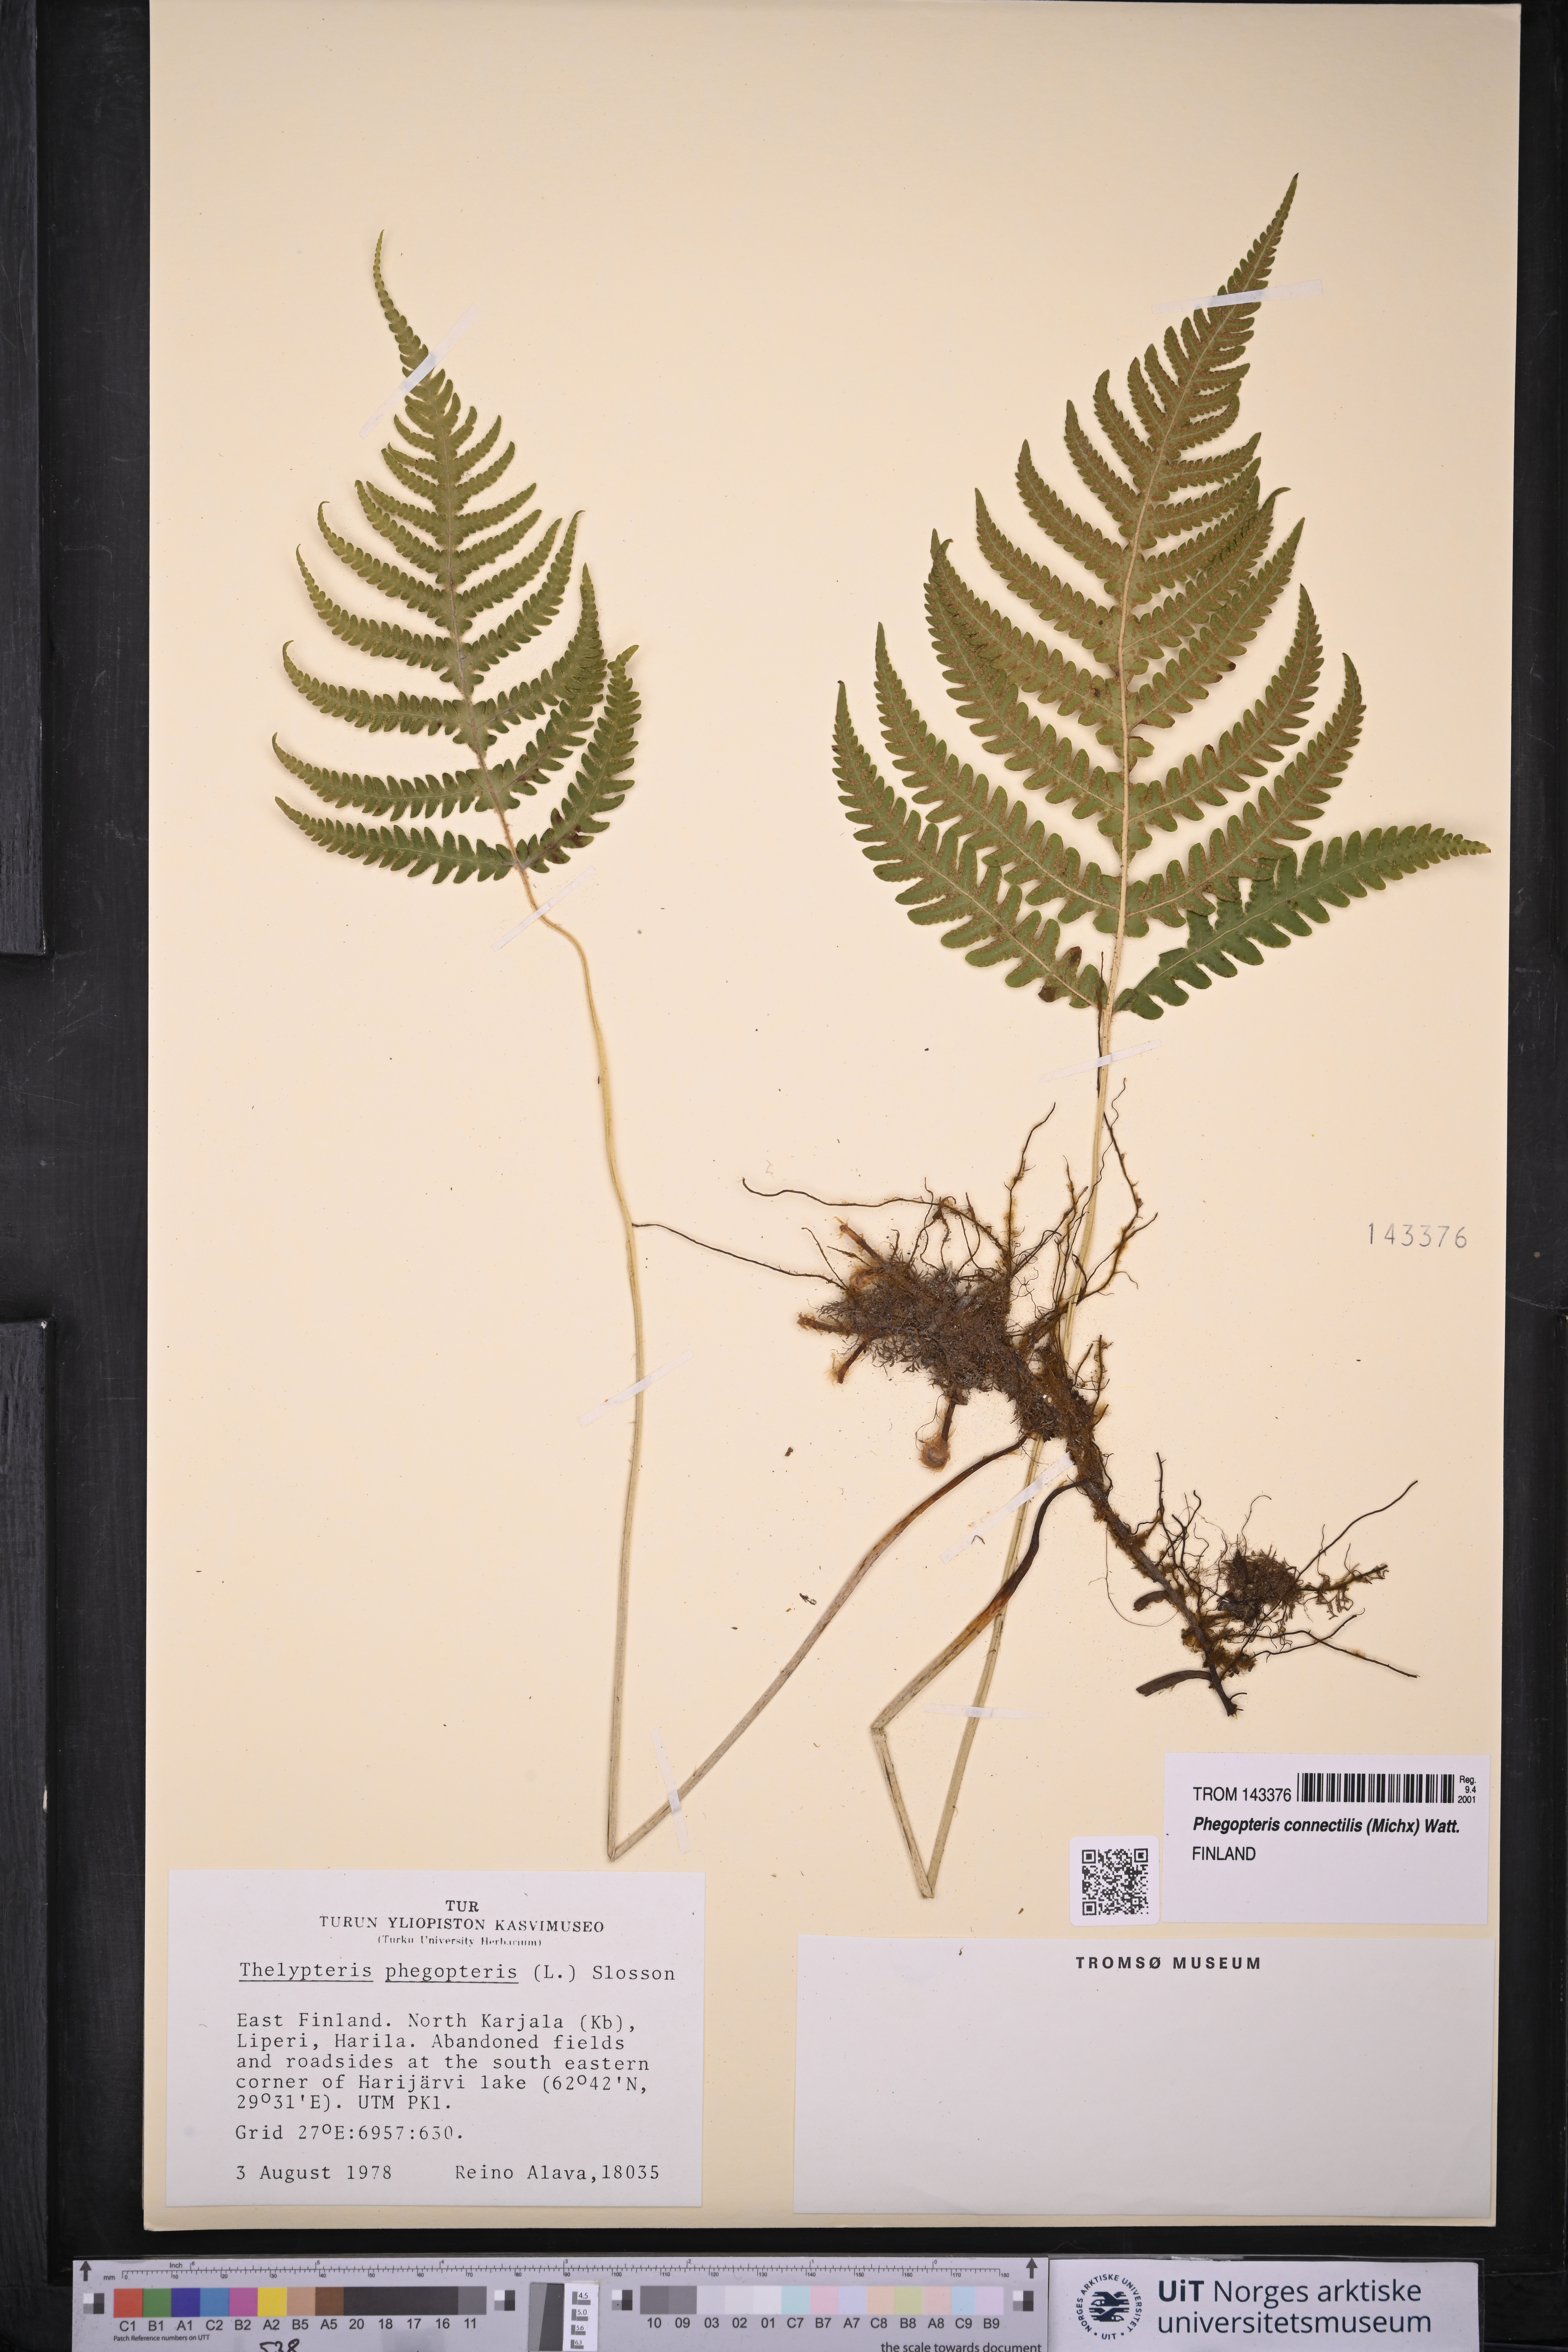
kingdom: Plantae
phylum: Tracheophyta
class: Polypodiopsida
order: Polypodiales
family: Thelypteridaceae
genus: Phegopteris
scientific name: Phegopteris connectilis
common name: Beech fern
